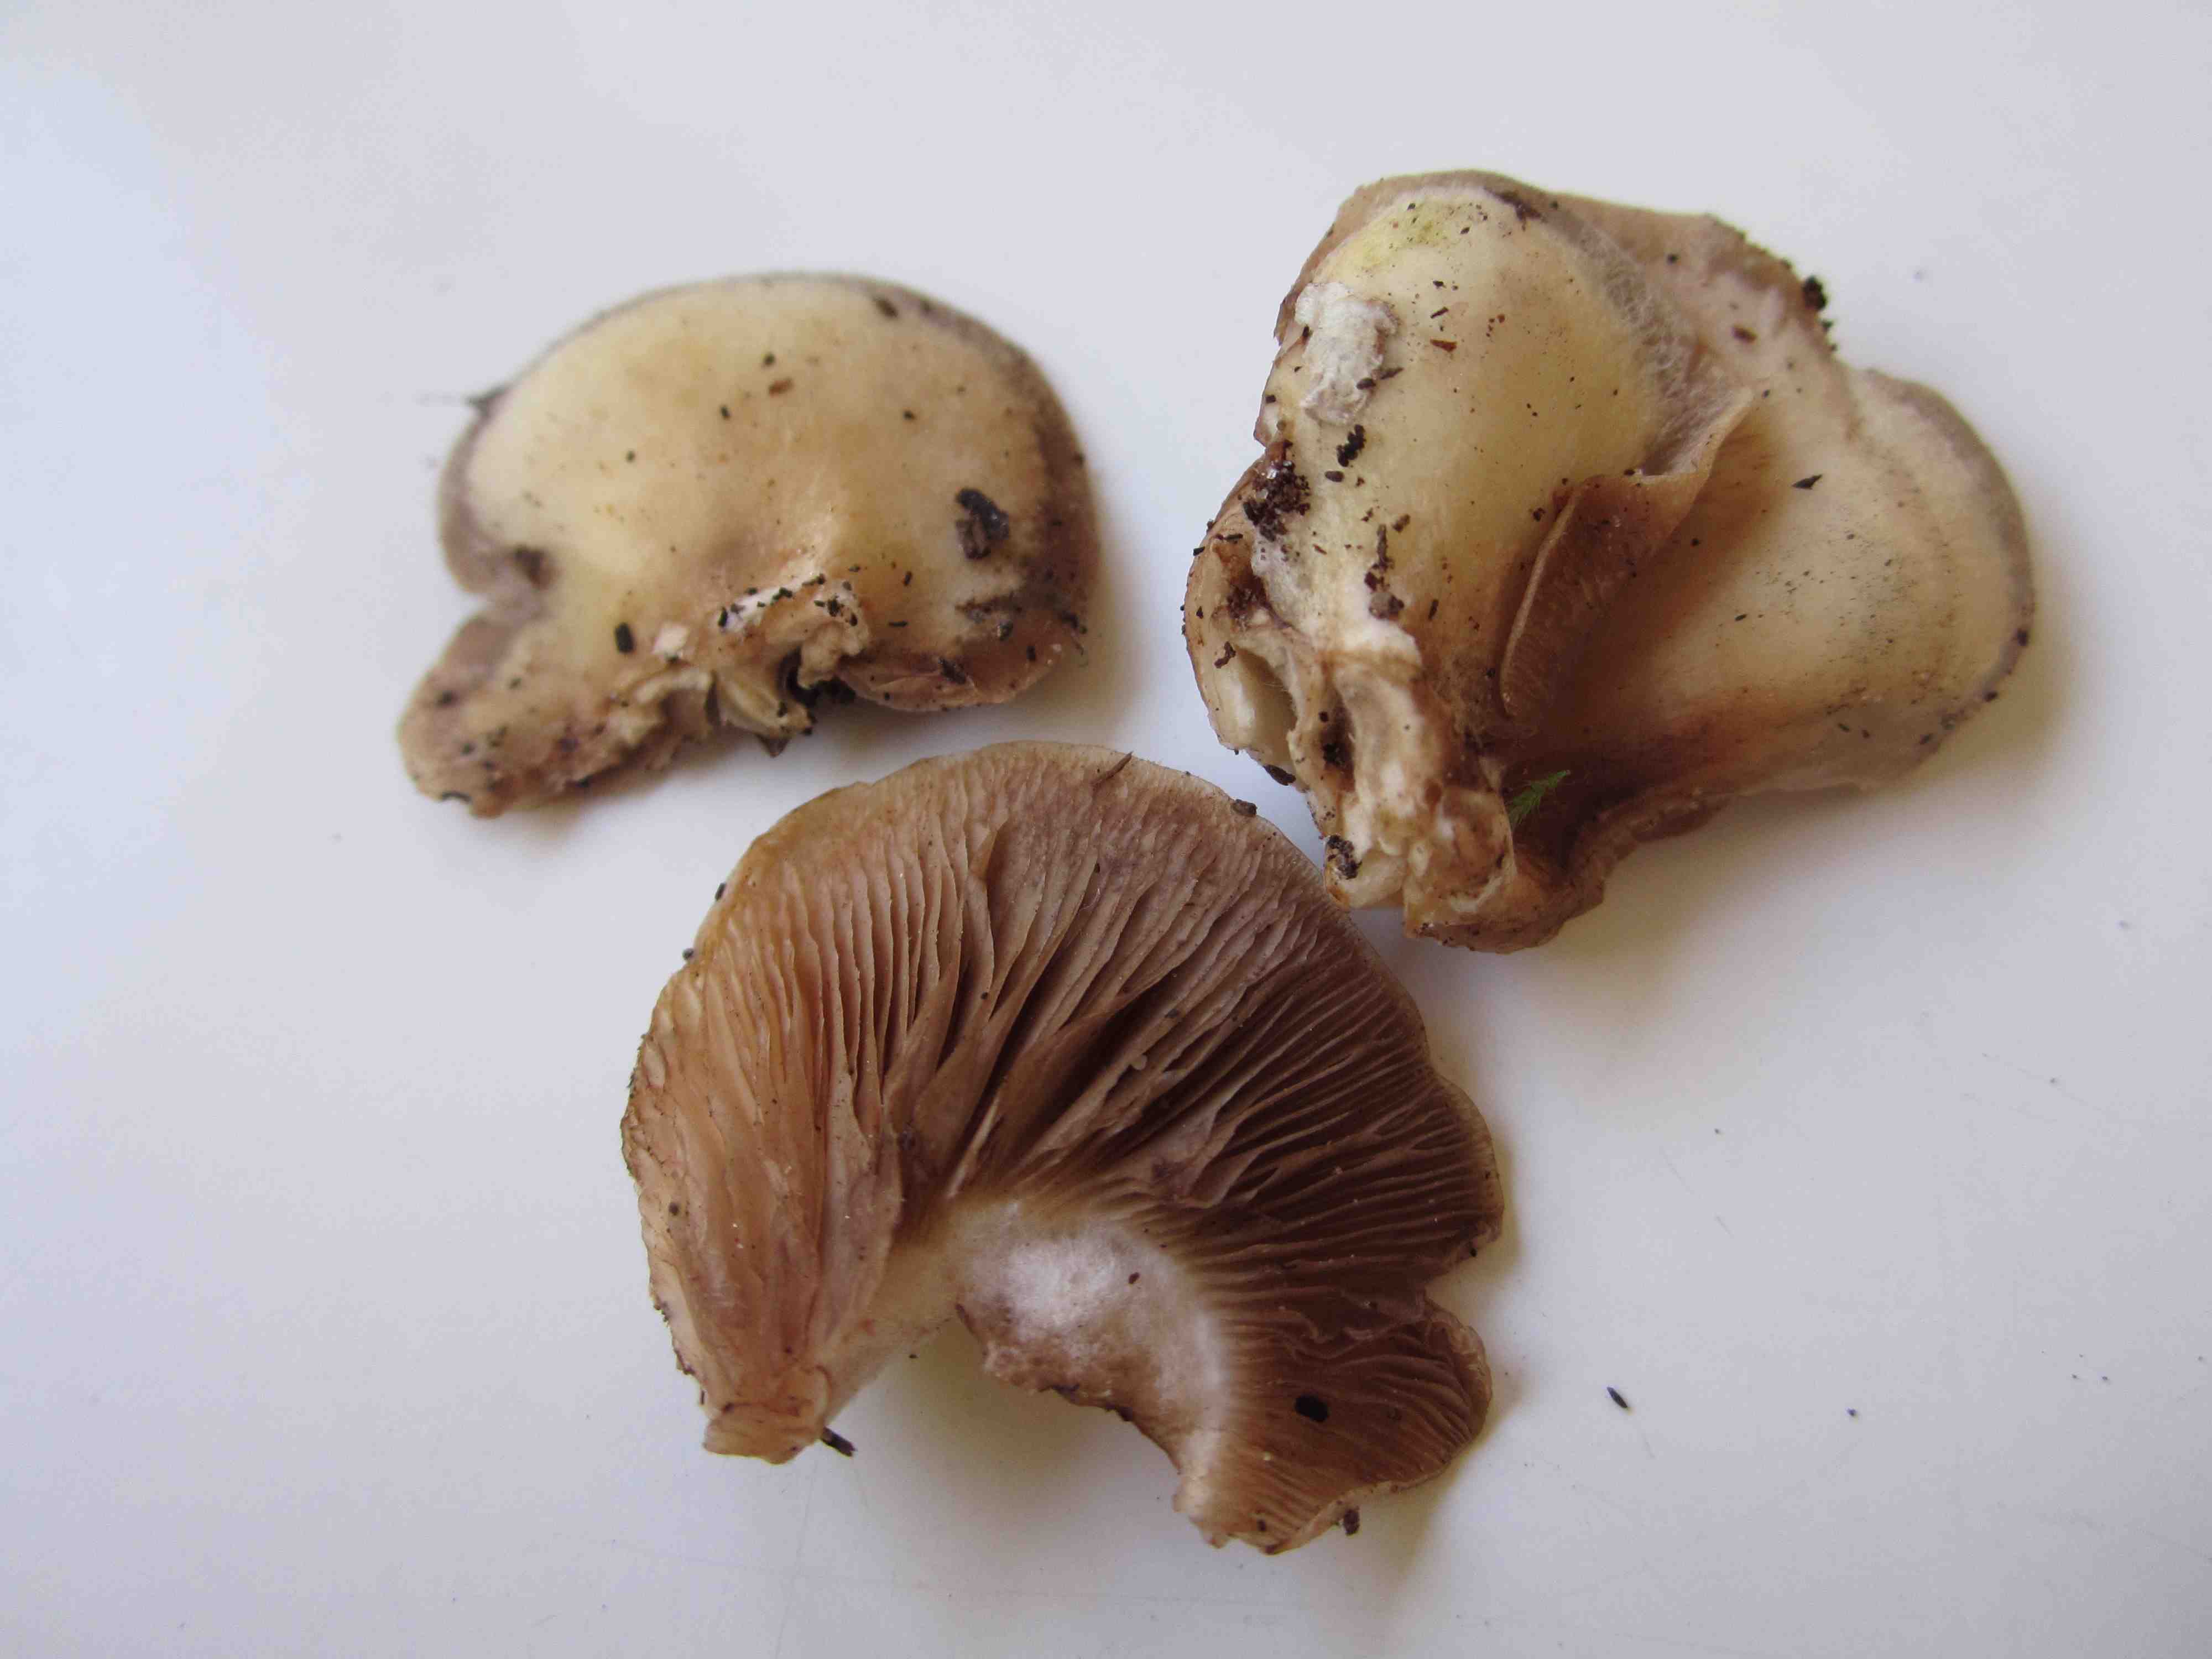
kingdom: Fungi
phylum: Basidiomycota
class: Agaricomycetes
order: Agaricales
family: Crepidotaceae
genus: Crepidotus
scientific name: Crepidotus mollis
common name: blød muslingesvamp
